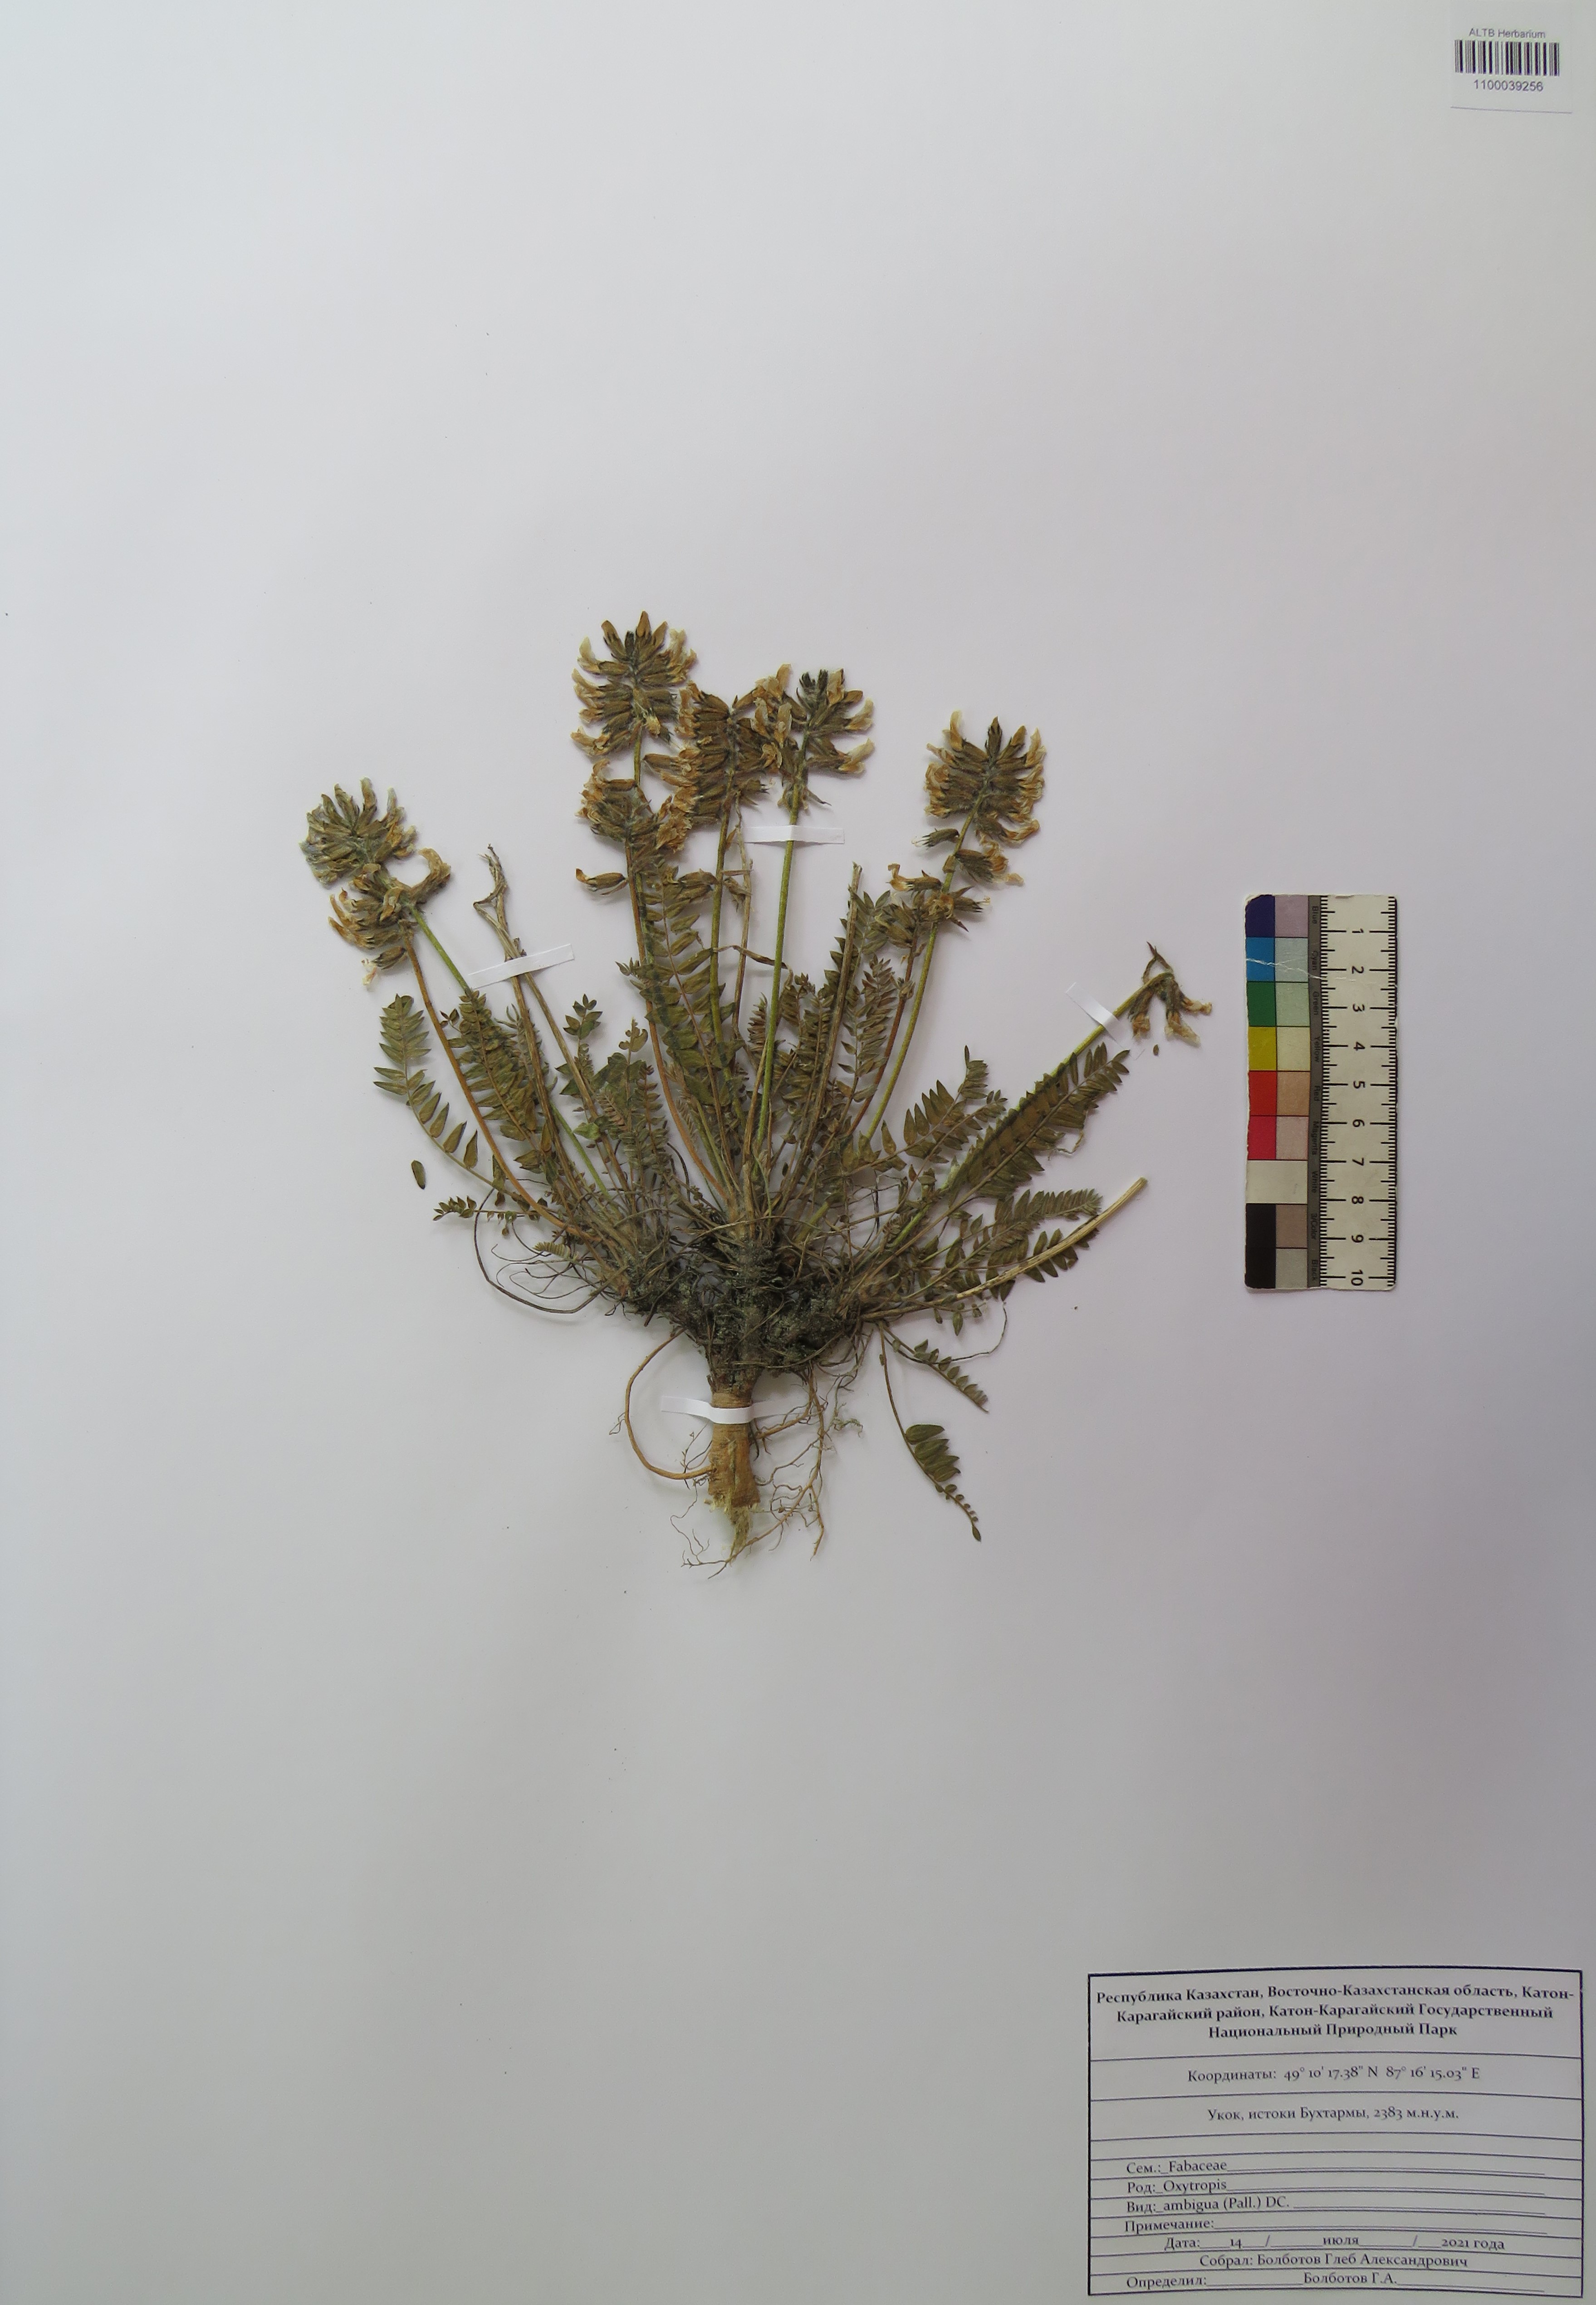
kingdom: Plantae
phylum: Tracheophyta
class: Magnoliopsida
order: Fabales
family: Fabaceae
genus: Oxytropis
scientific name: Oxytropis ambigua
